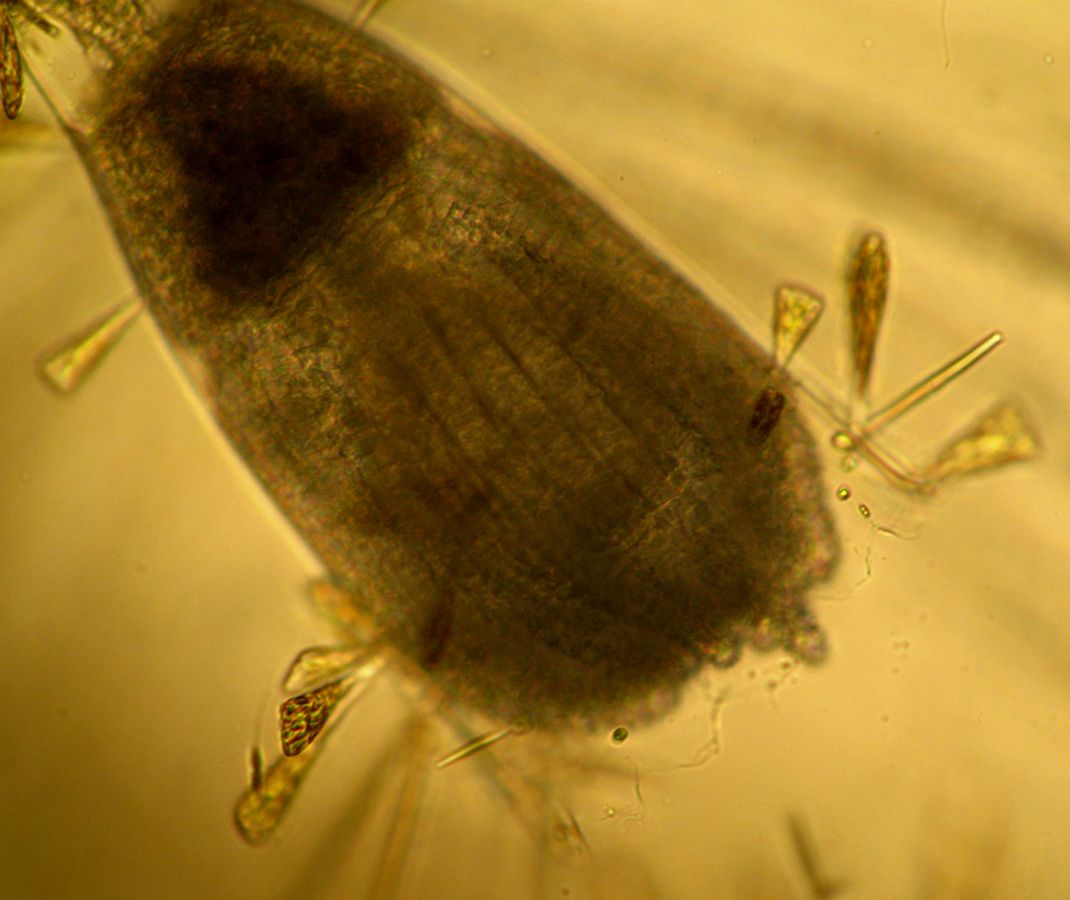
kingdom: Animalia
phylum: Cnidaria
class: Hydrozoa
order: Leptothecata
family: Campanulariidae
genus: Gonothyraea
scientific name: Gonothyraea loveni
